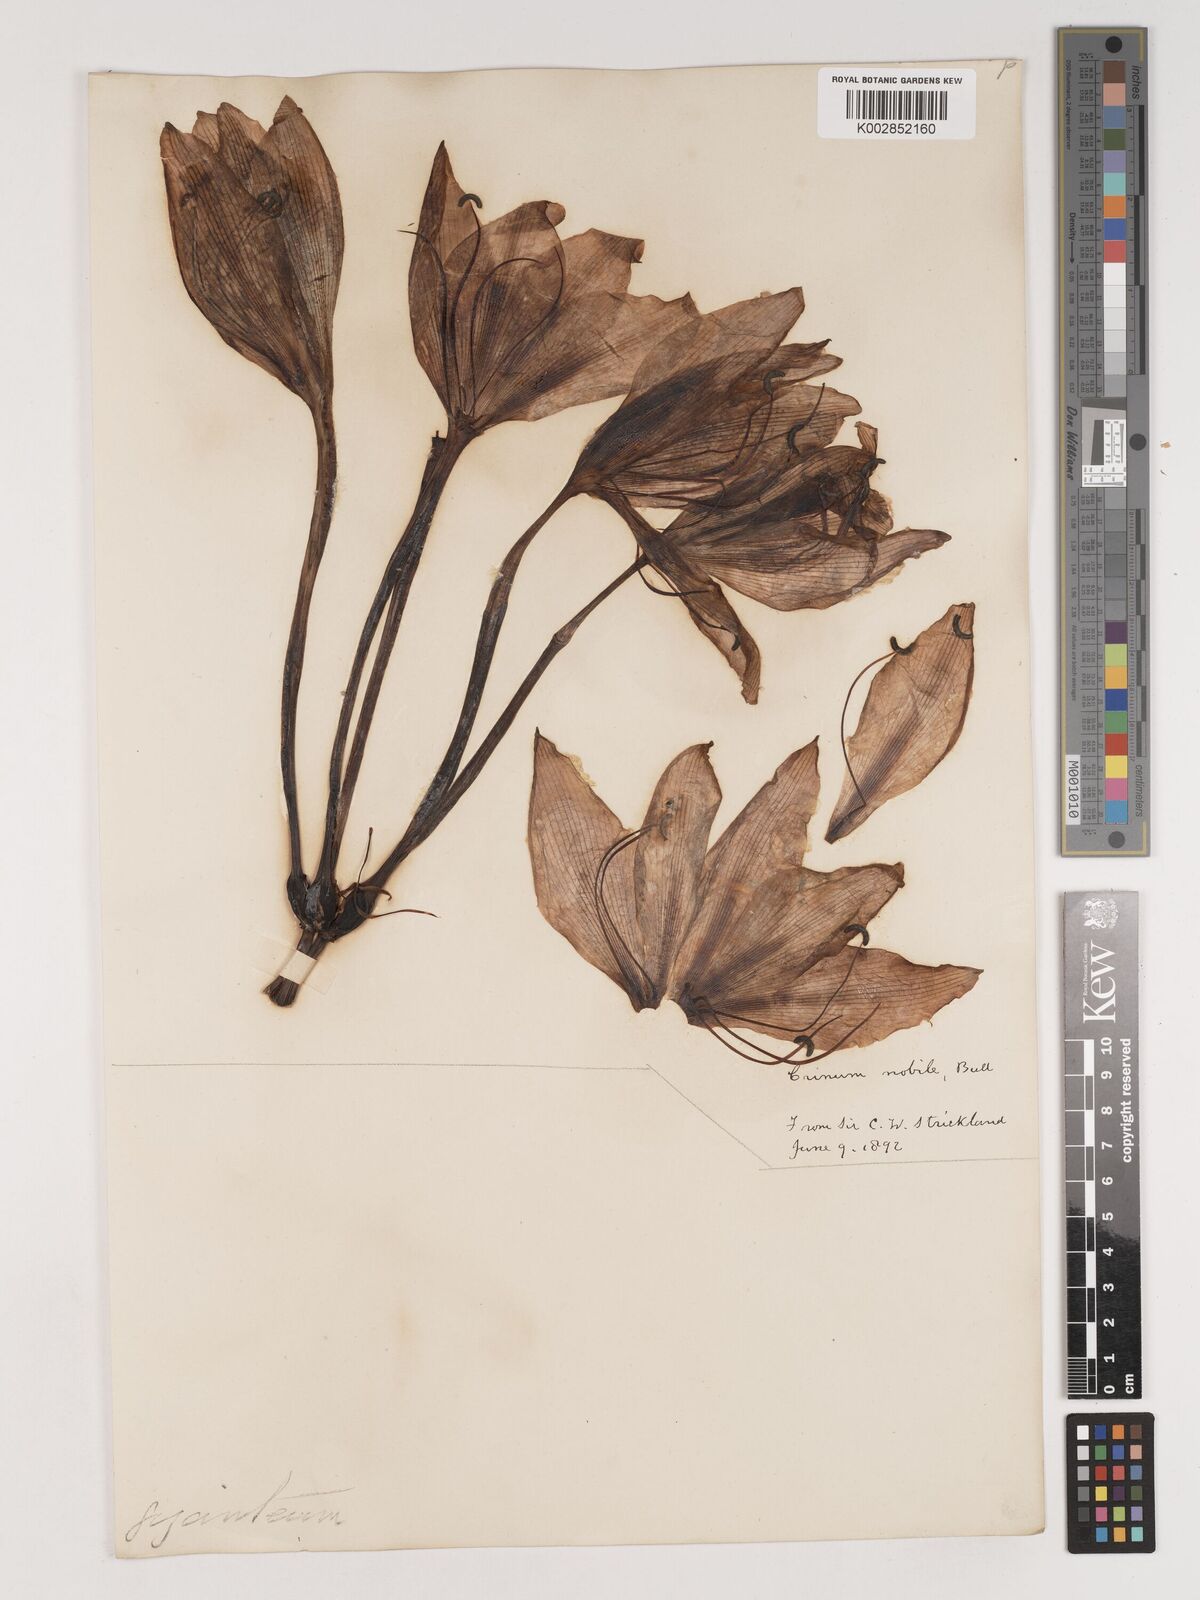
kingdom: Plantae
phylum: Tracheophyta
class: Liliopsida
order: Asparagales
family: Amaryllidaceae
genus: Crinum
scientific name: Crinum jagus
